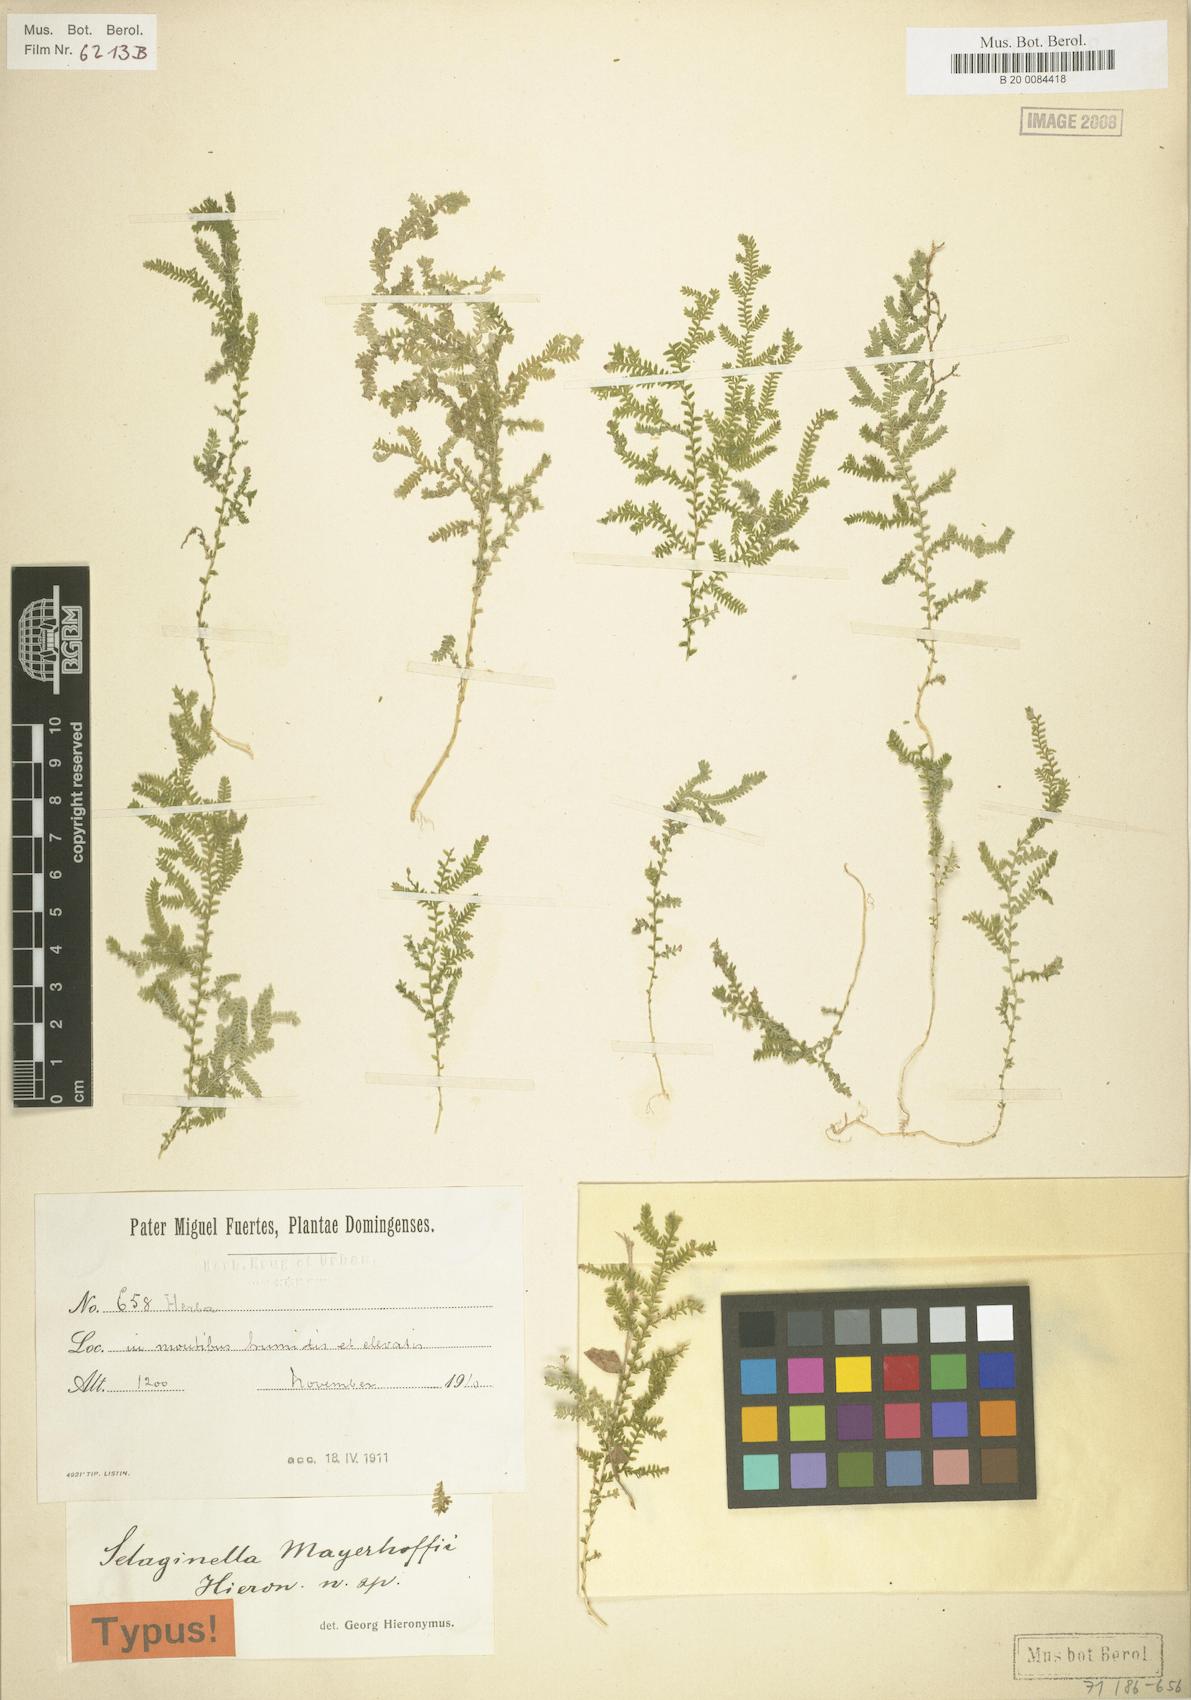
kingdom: Plantae
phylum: Tracheophyta
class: Lycopodiopsida
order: Selaginellales
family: Selaginellaceae
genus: Selaginella
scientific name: Selaginella flabellum
